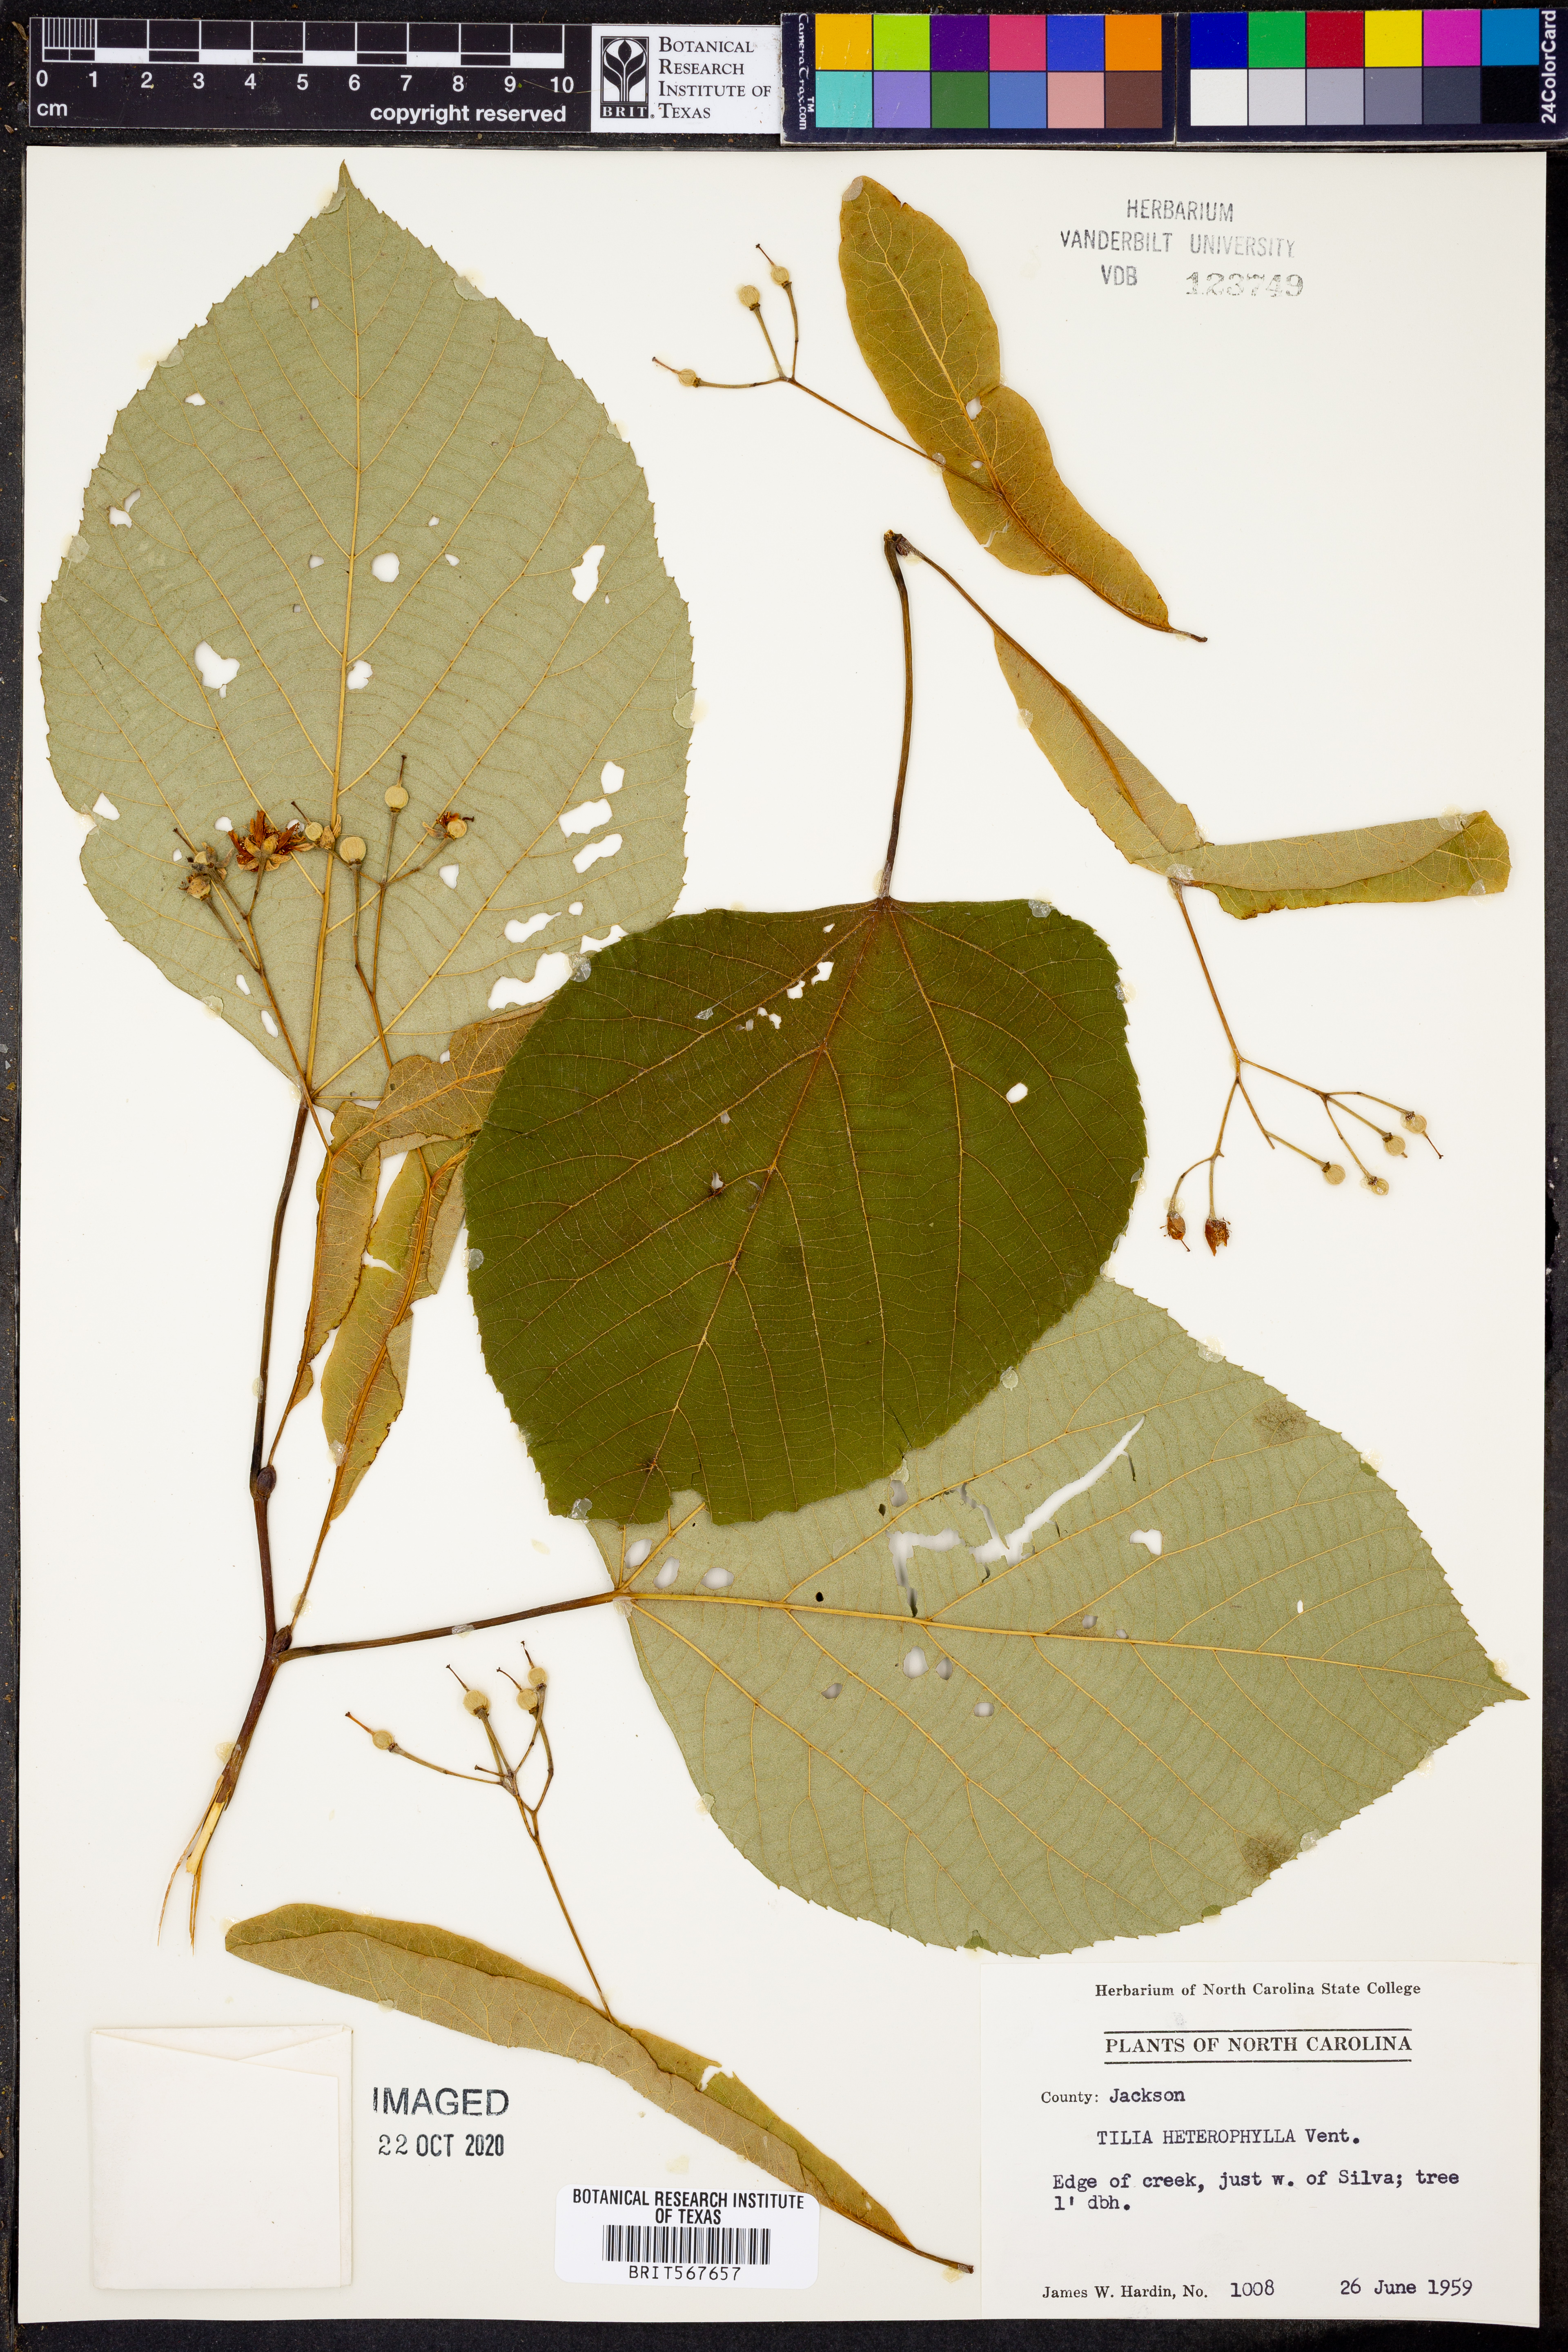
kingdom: Plantae
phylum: Tracheophyta
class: Magnoliopsida
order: Malvales
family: Malvaceae
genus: Tilia
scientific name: Tilia americana
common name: Basswood
